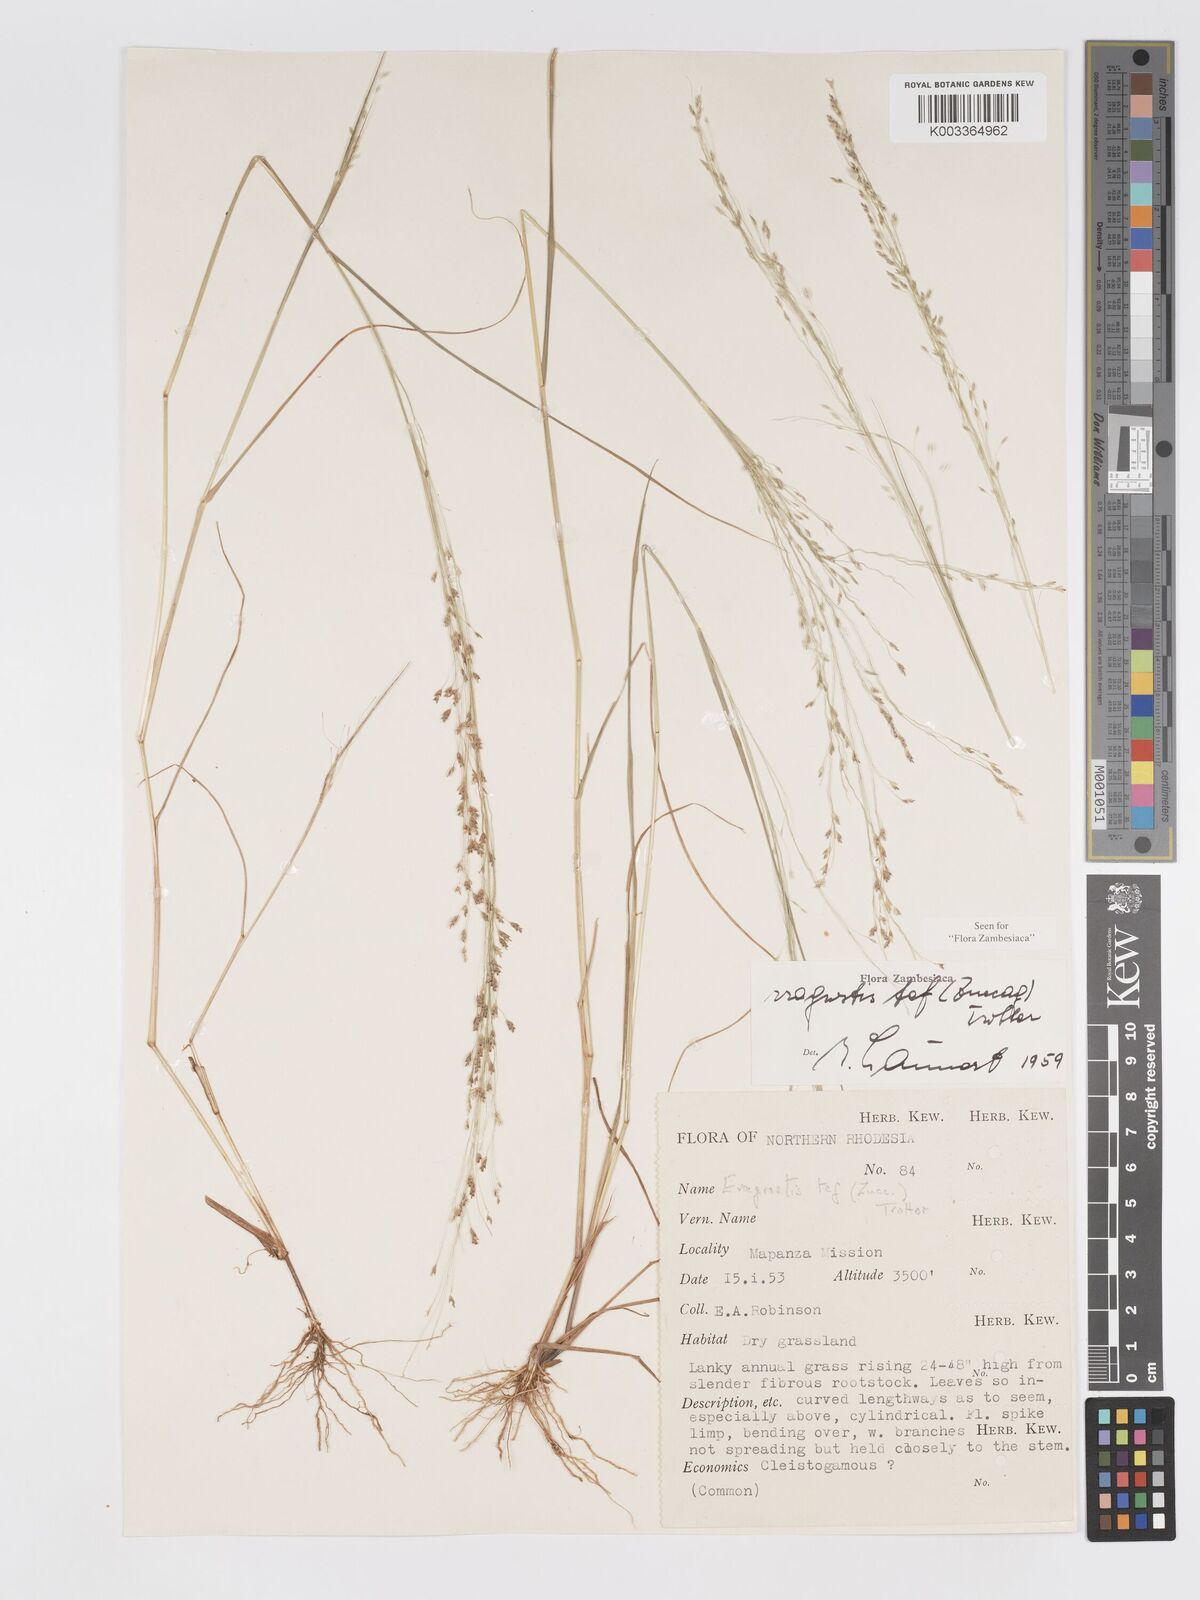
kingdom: Plantae
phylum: Tracheophyta
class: Liliopsida
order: Poales
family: Poaceae
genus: Eragrostis
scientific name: Eragrostis tef
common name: Teff
